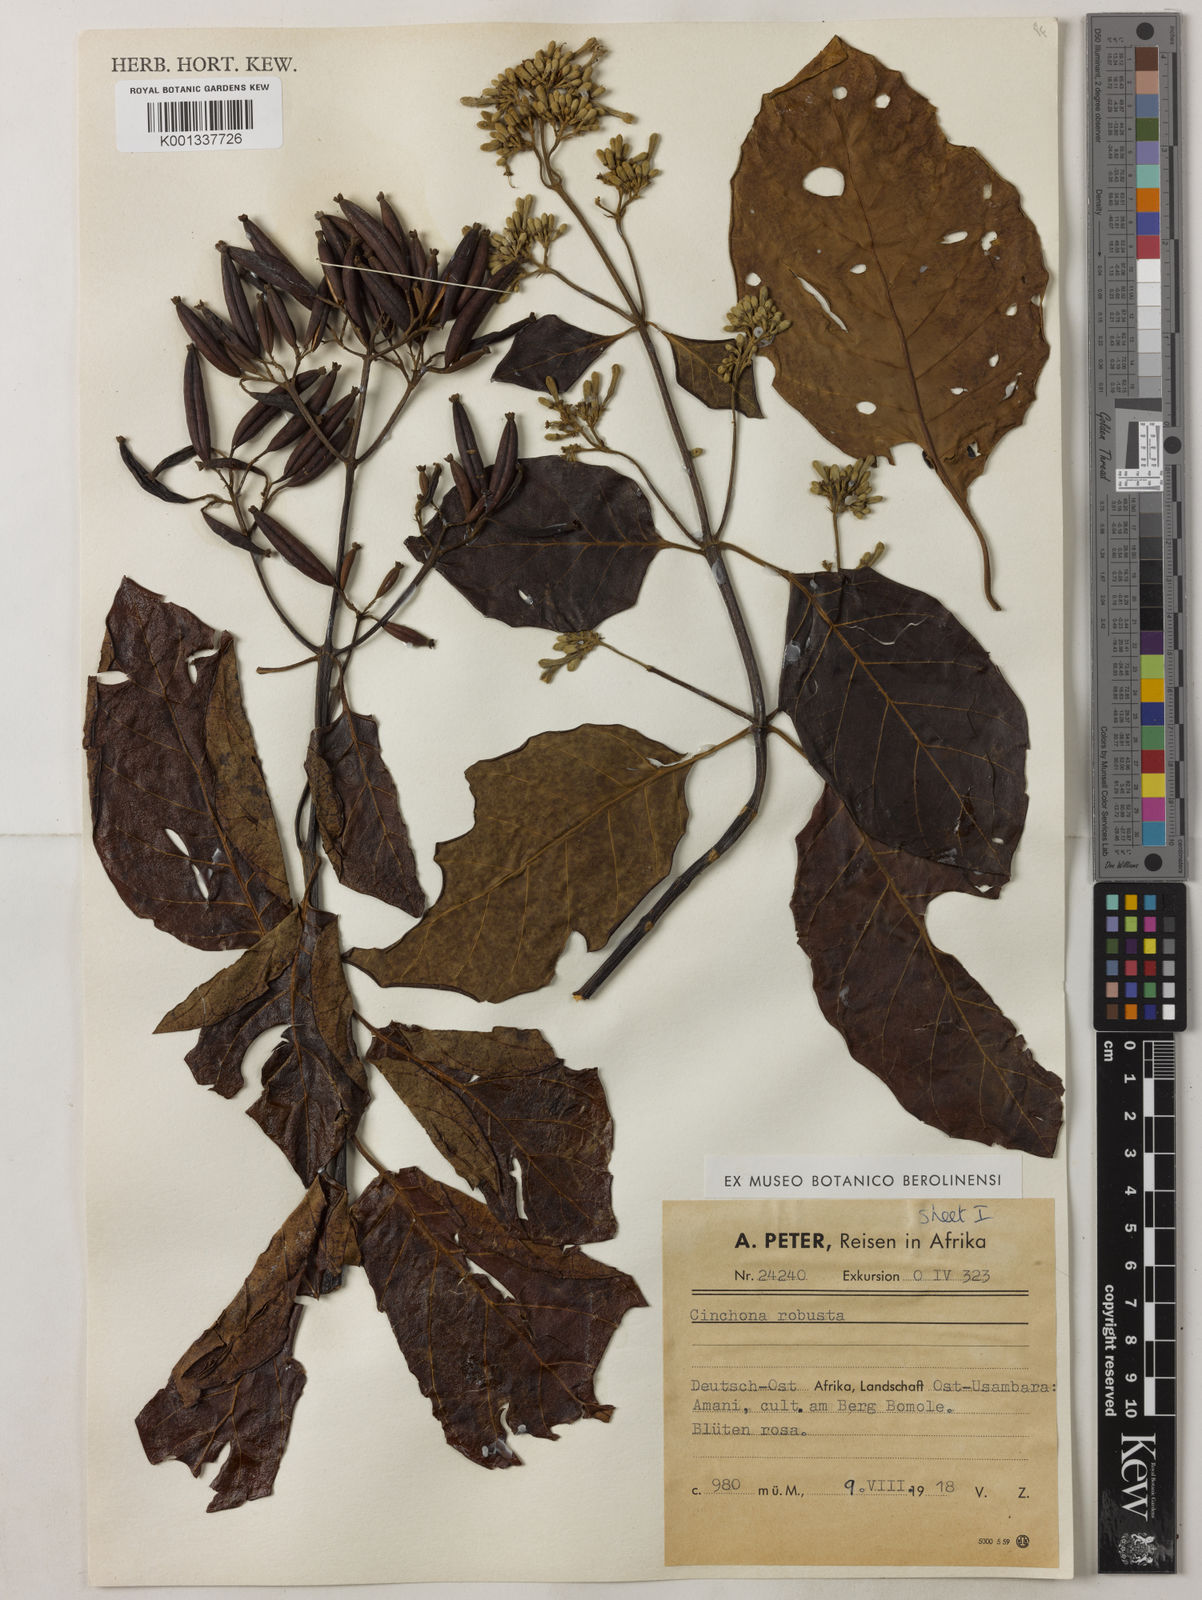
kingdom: Plantae
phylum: Tracheophyta
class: Magnoliopsida
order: Gentianales
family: Rubiaceae
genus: Cinchona
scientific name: Cinchona
